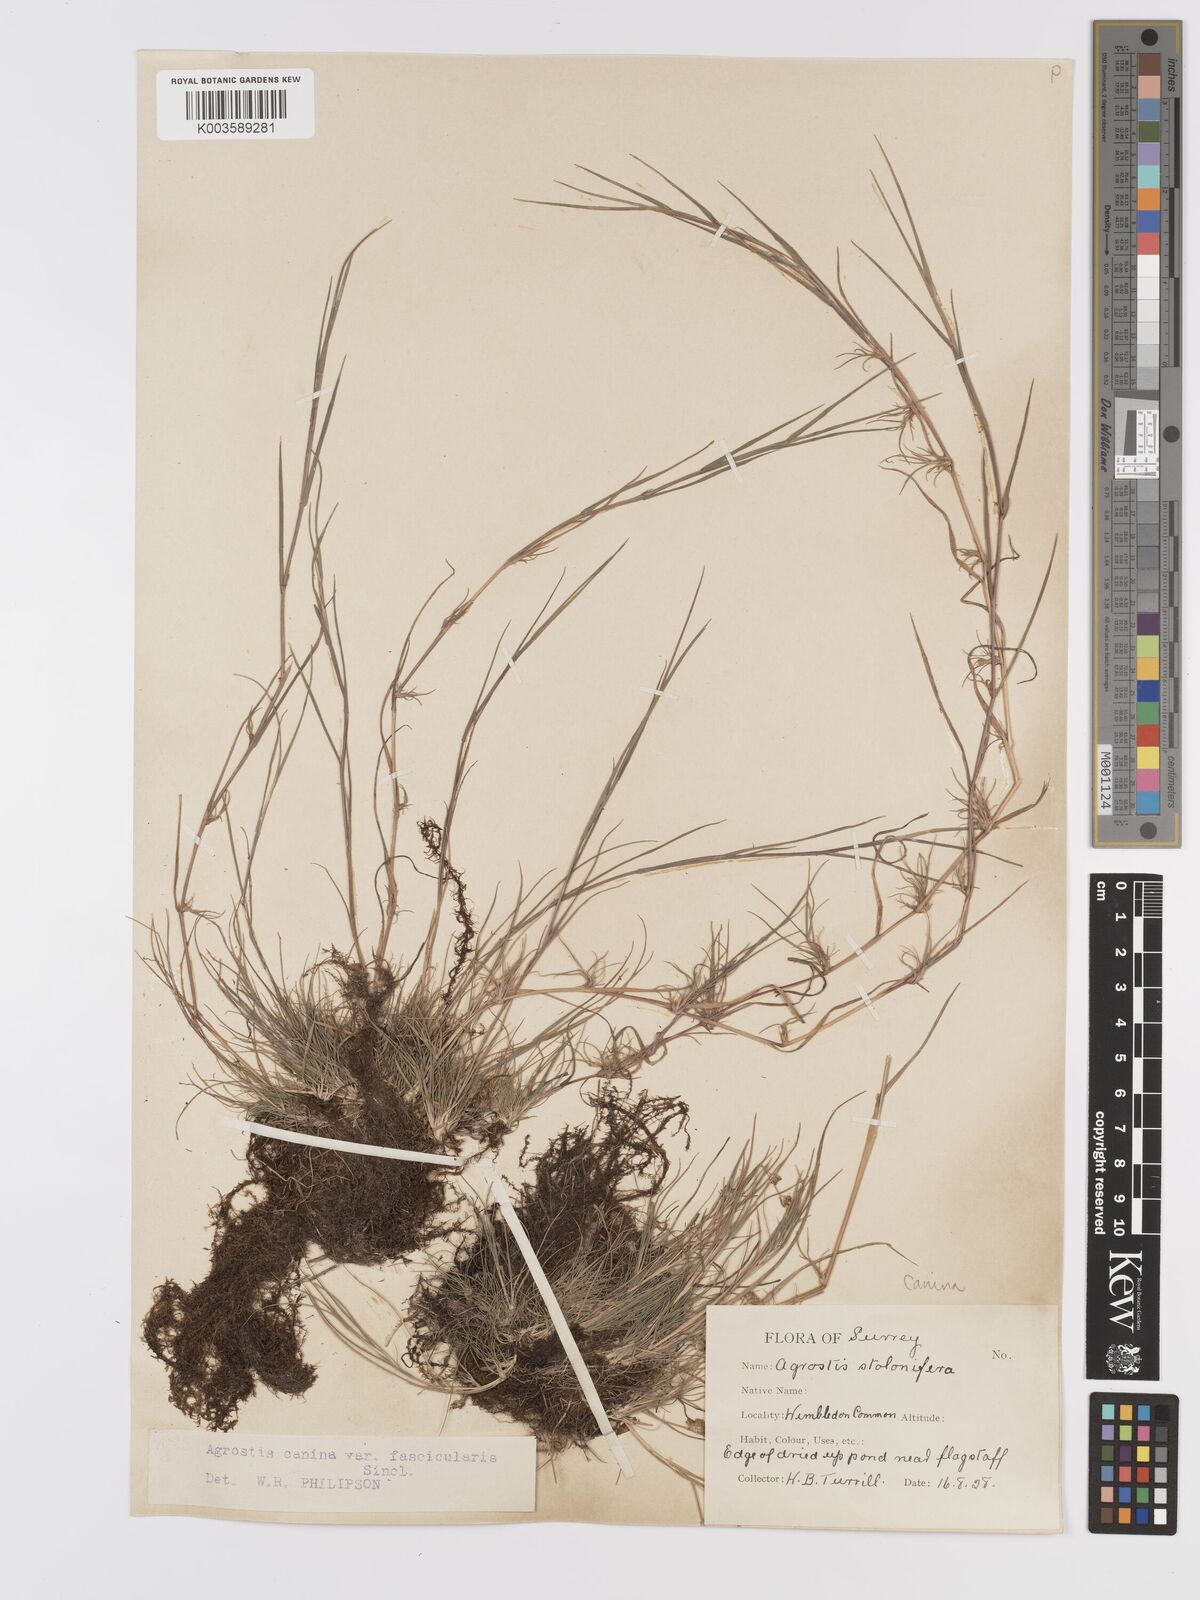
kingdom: Plantae
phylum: Tracheophyta
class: Liliopsida
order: Poales
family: Poaceae
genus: Agrostis
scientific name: Agrostis canina
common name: Velvet bent
